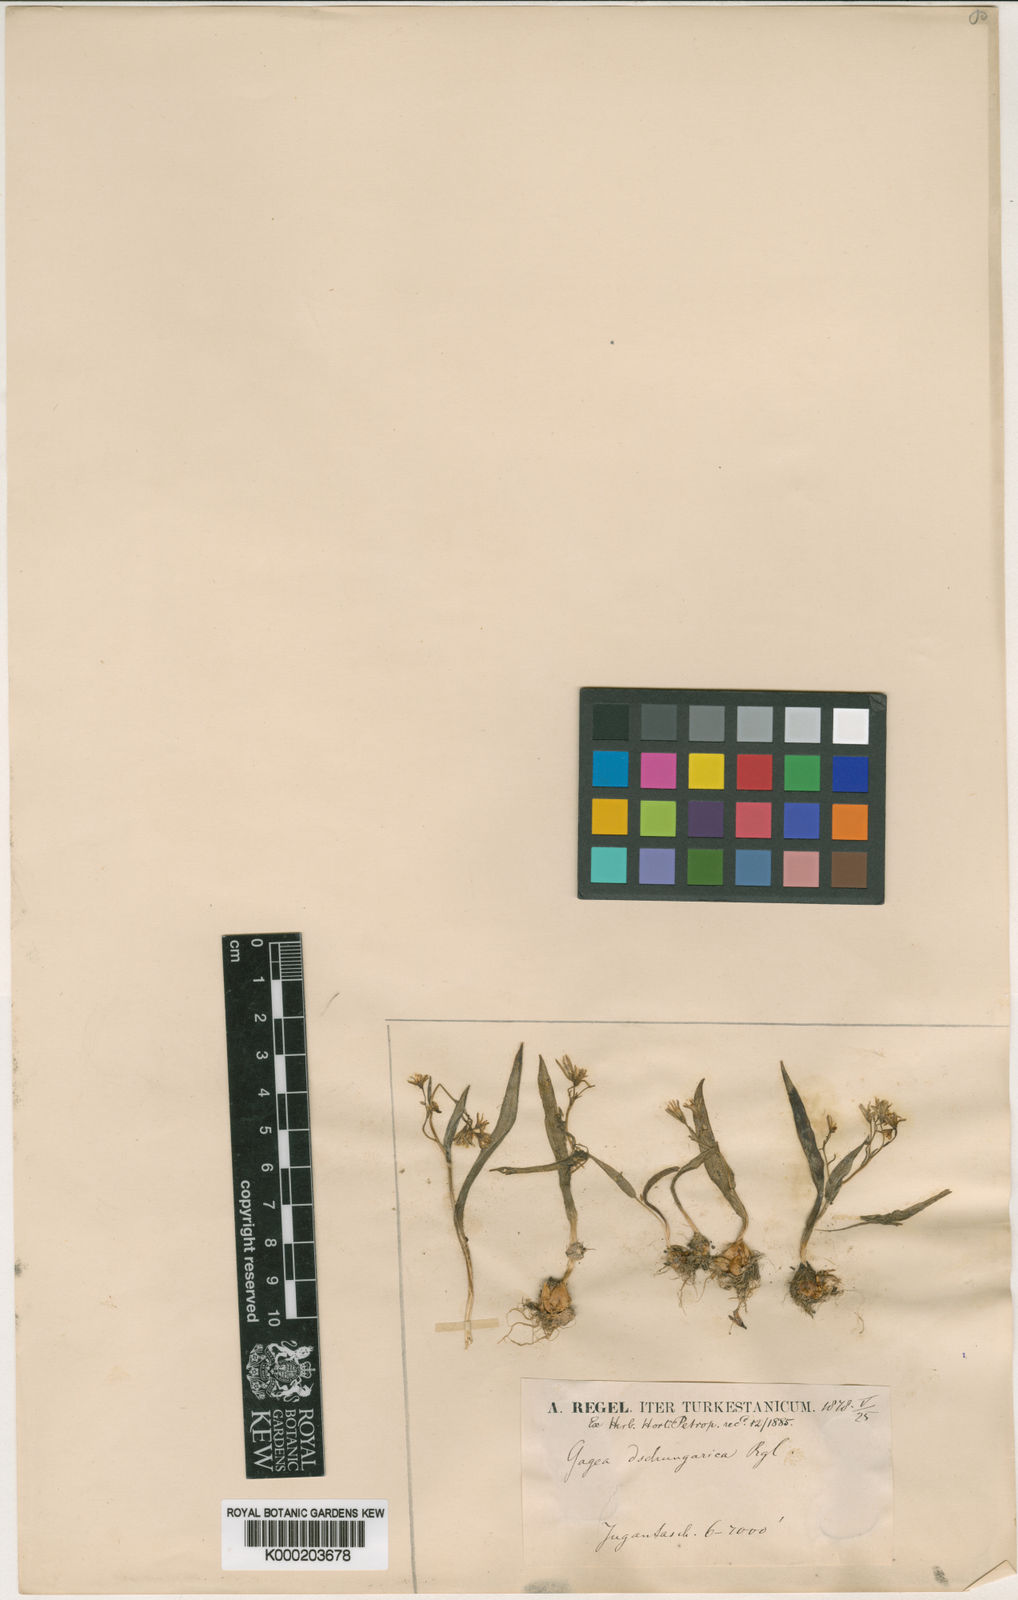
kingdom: Plantae
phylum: Tracheophyta
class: Liliopsida
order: Liliales
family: Liliaceae
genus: Gagea
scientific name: Gagea dschungarica
